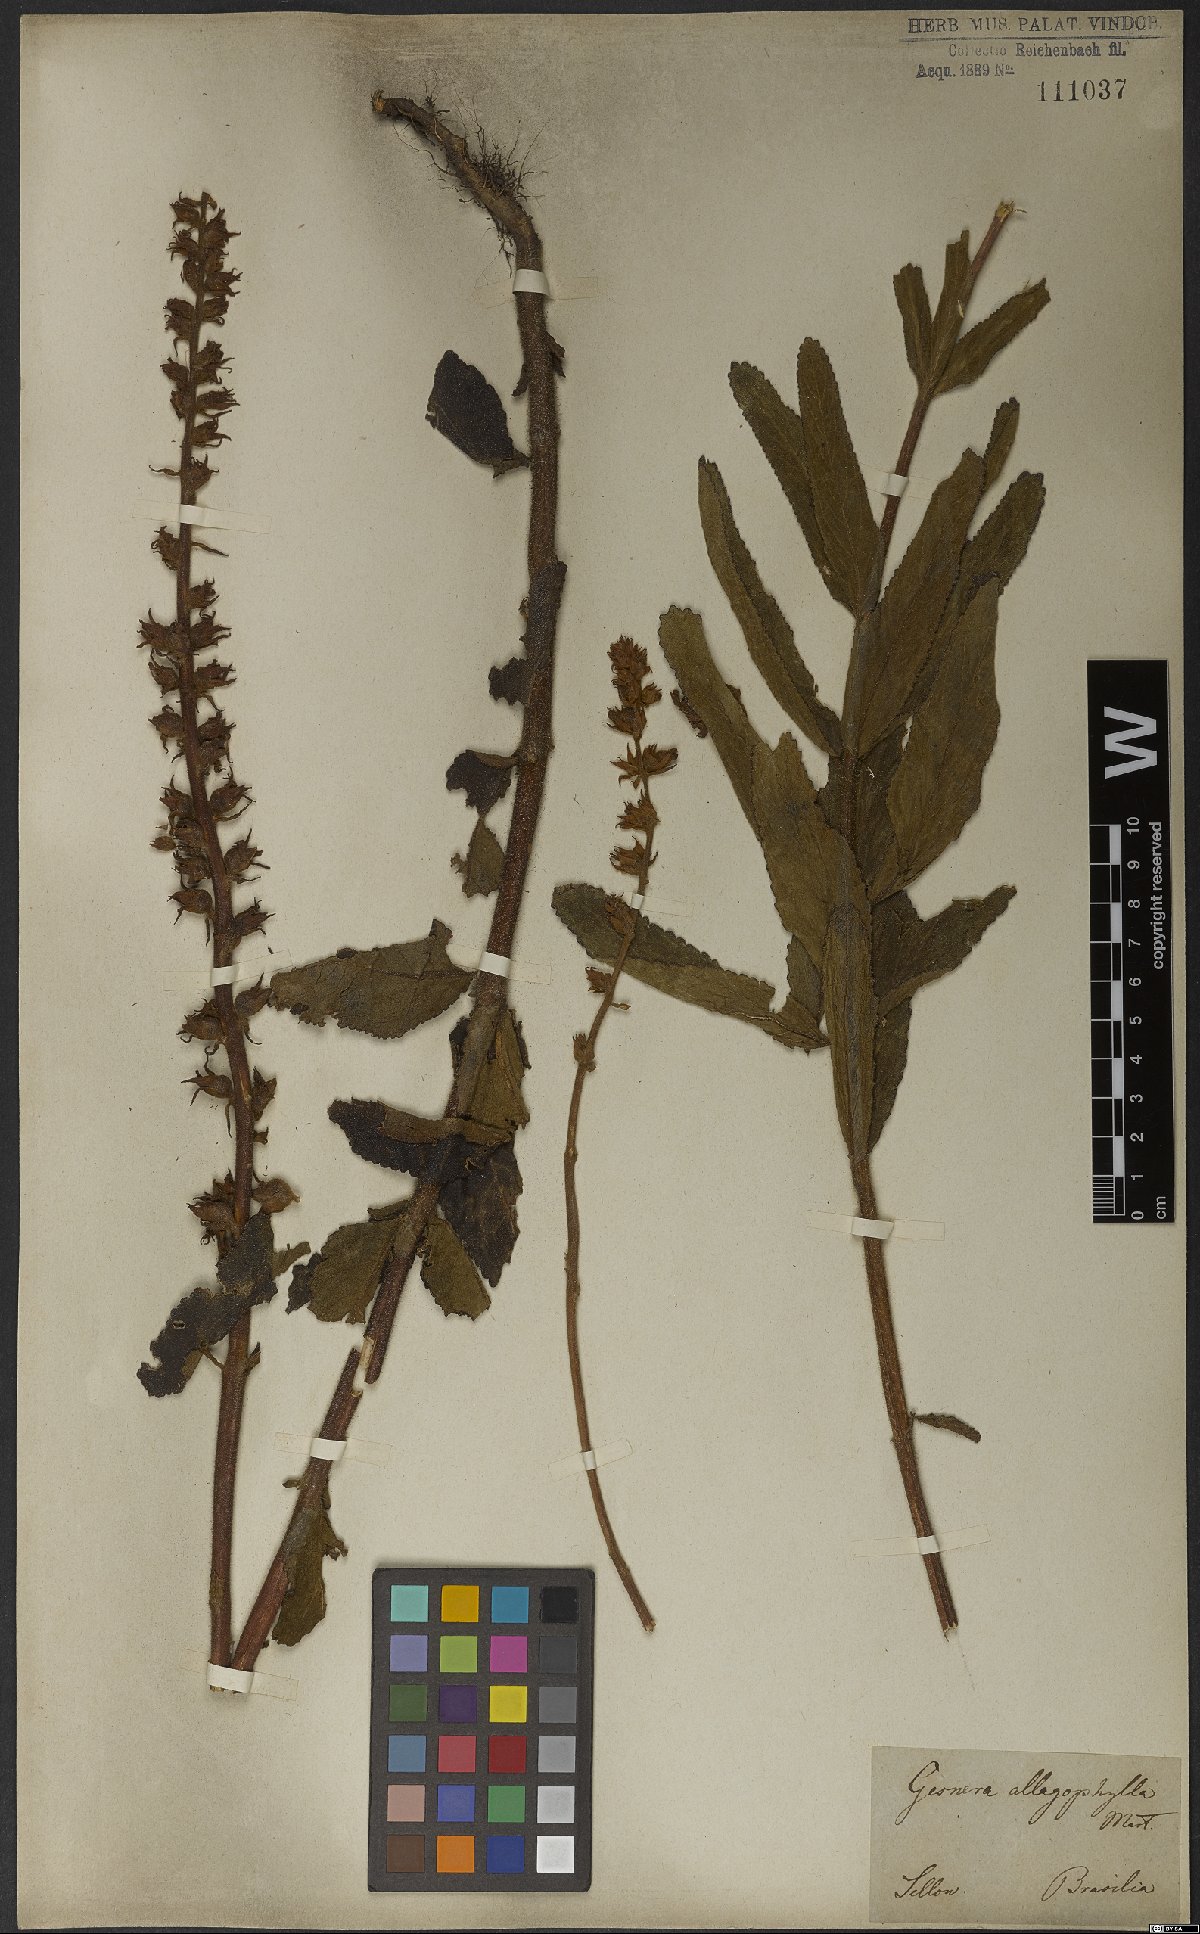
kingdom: Plantae
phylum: Tracheophyta
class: Magnoliopsida
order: Lamiales
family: Gesneriaceae
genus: Sinningia
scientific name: Sinningia allagophylla
